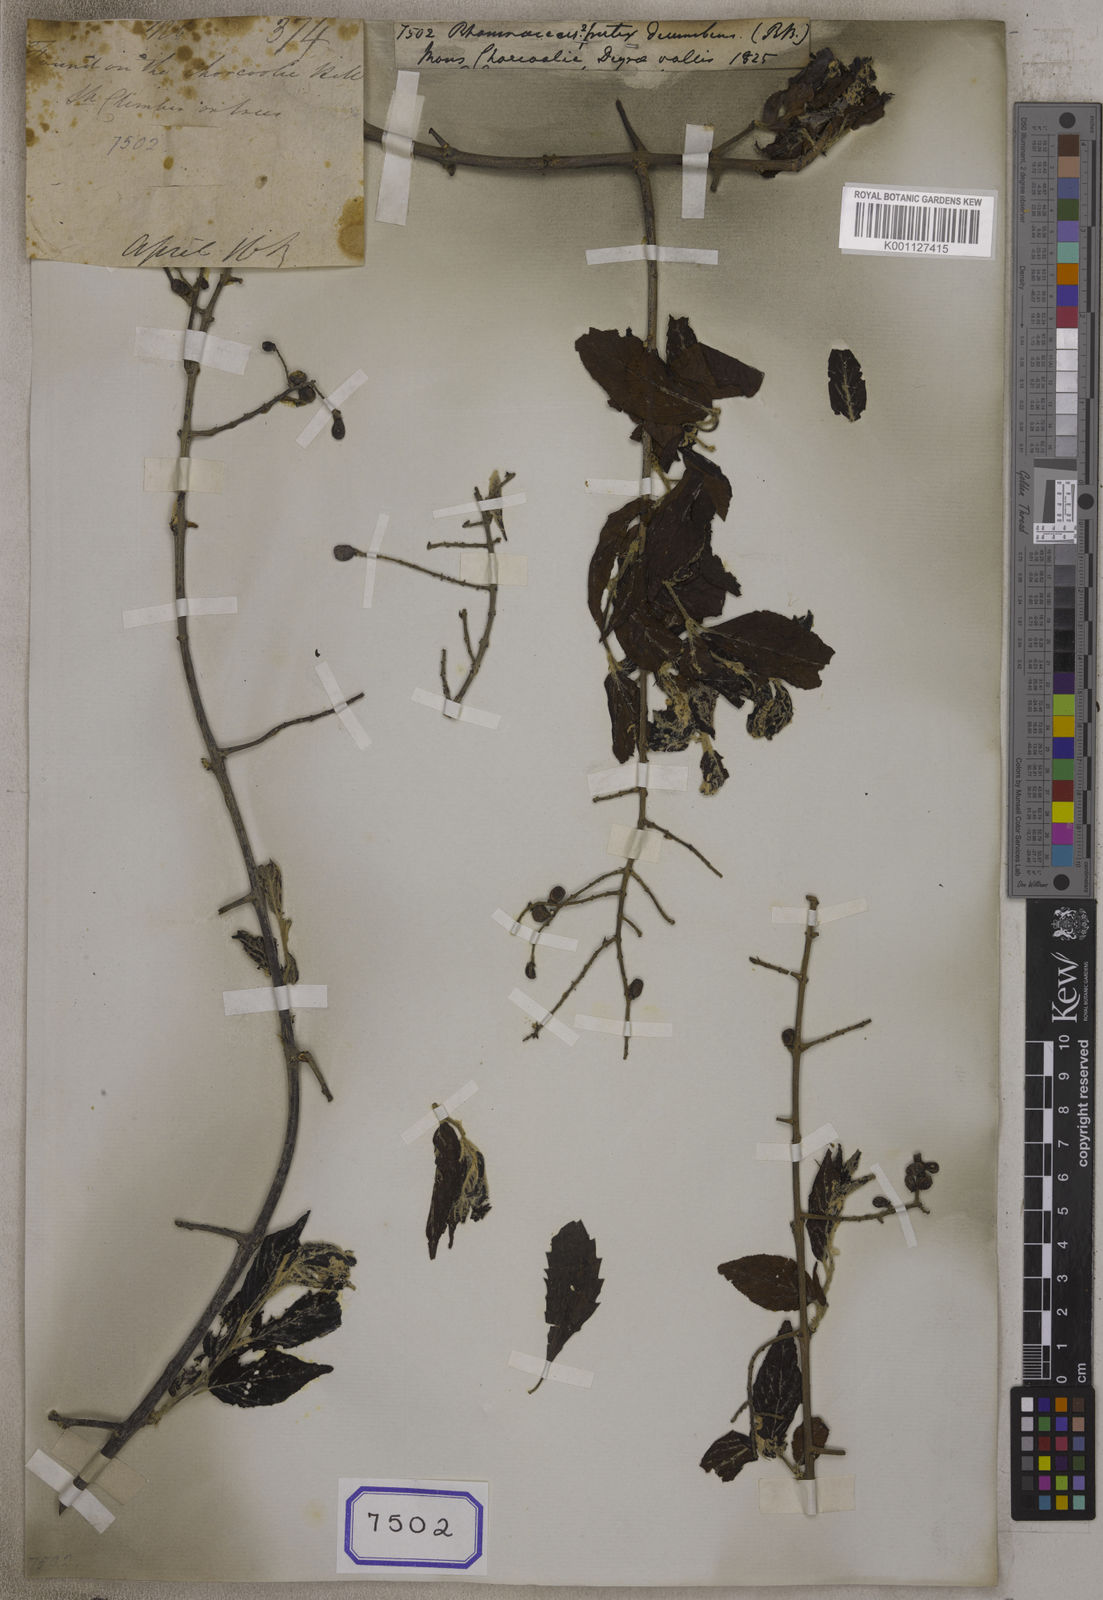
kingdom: Plantae
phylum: Tracheophyta
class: Magnoliopsida
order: Rosales
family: Rhamnaceae
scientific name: Rhamnaceae
